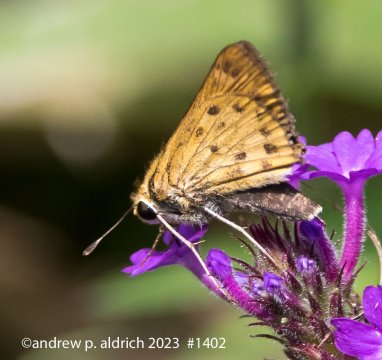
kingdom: Animalia
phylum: Arthropoda
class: Insecta
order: Lepidoptera
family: Hesperiidae
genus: Hylephila
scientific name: Hylephila phyleus
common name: Fiery Skipper
